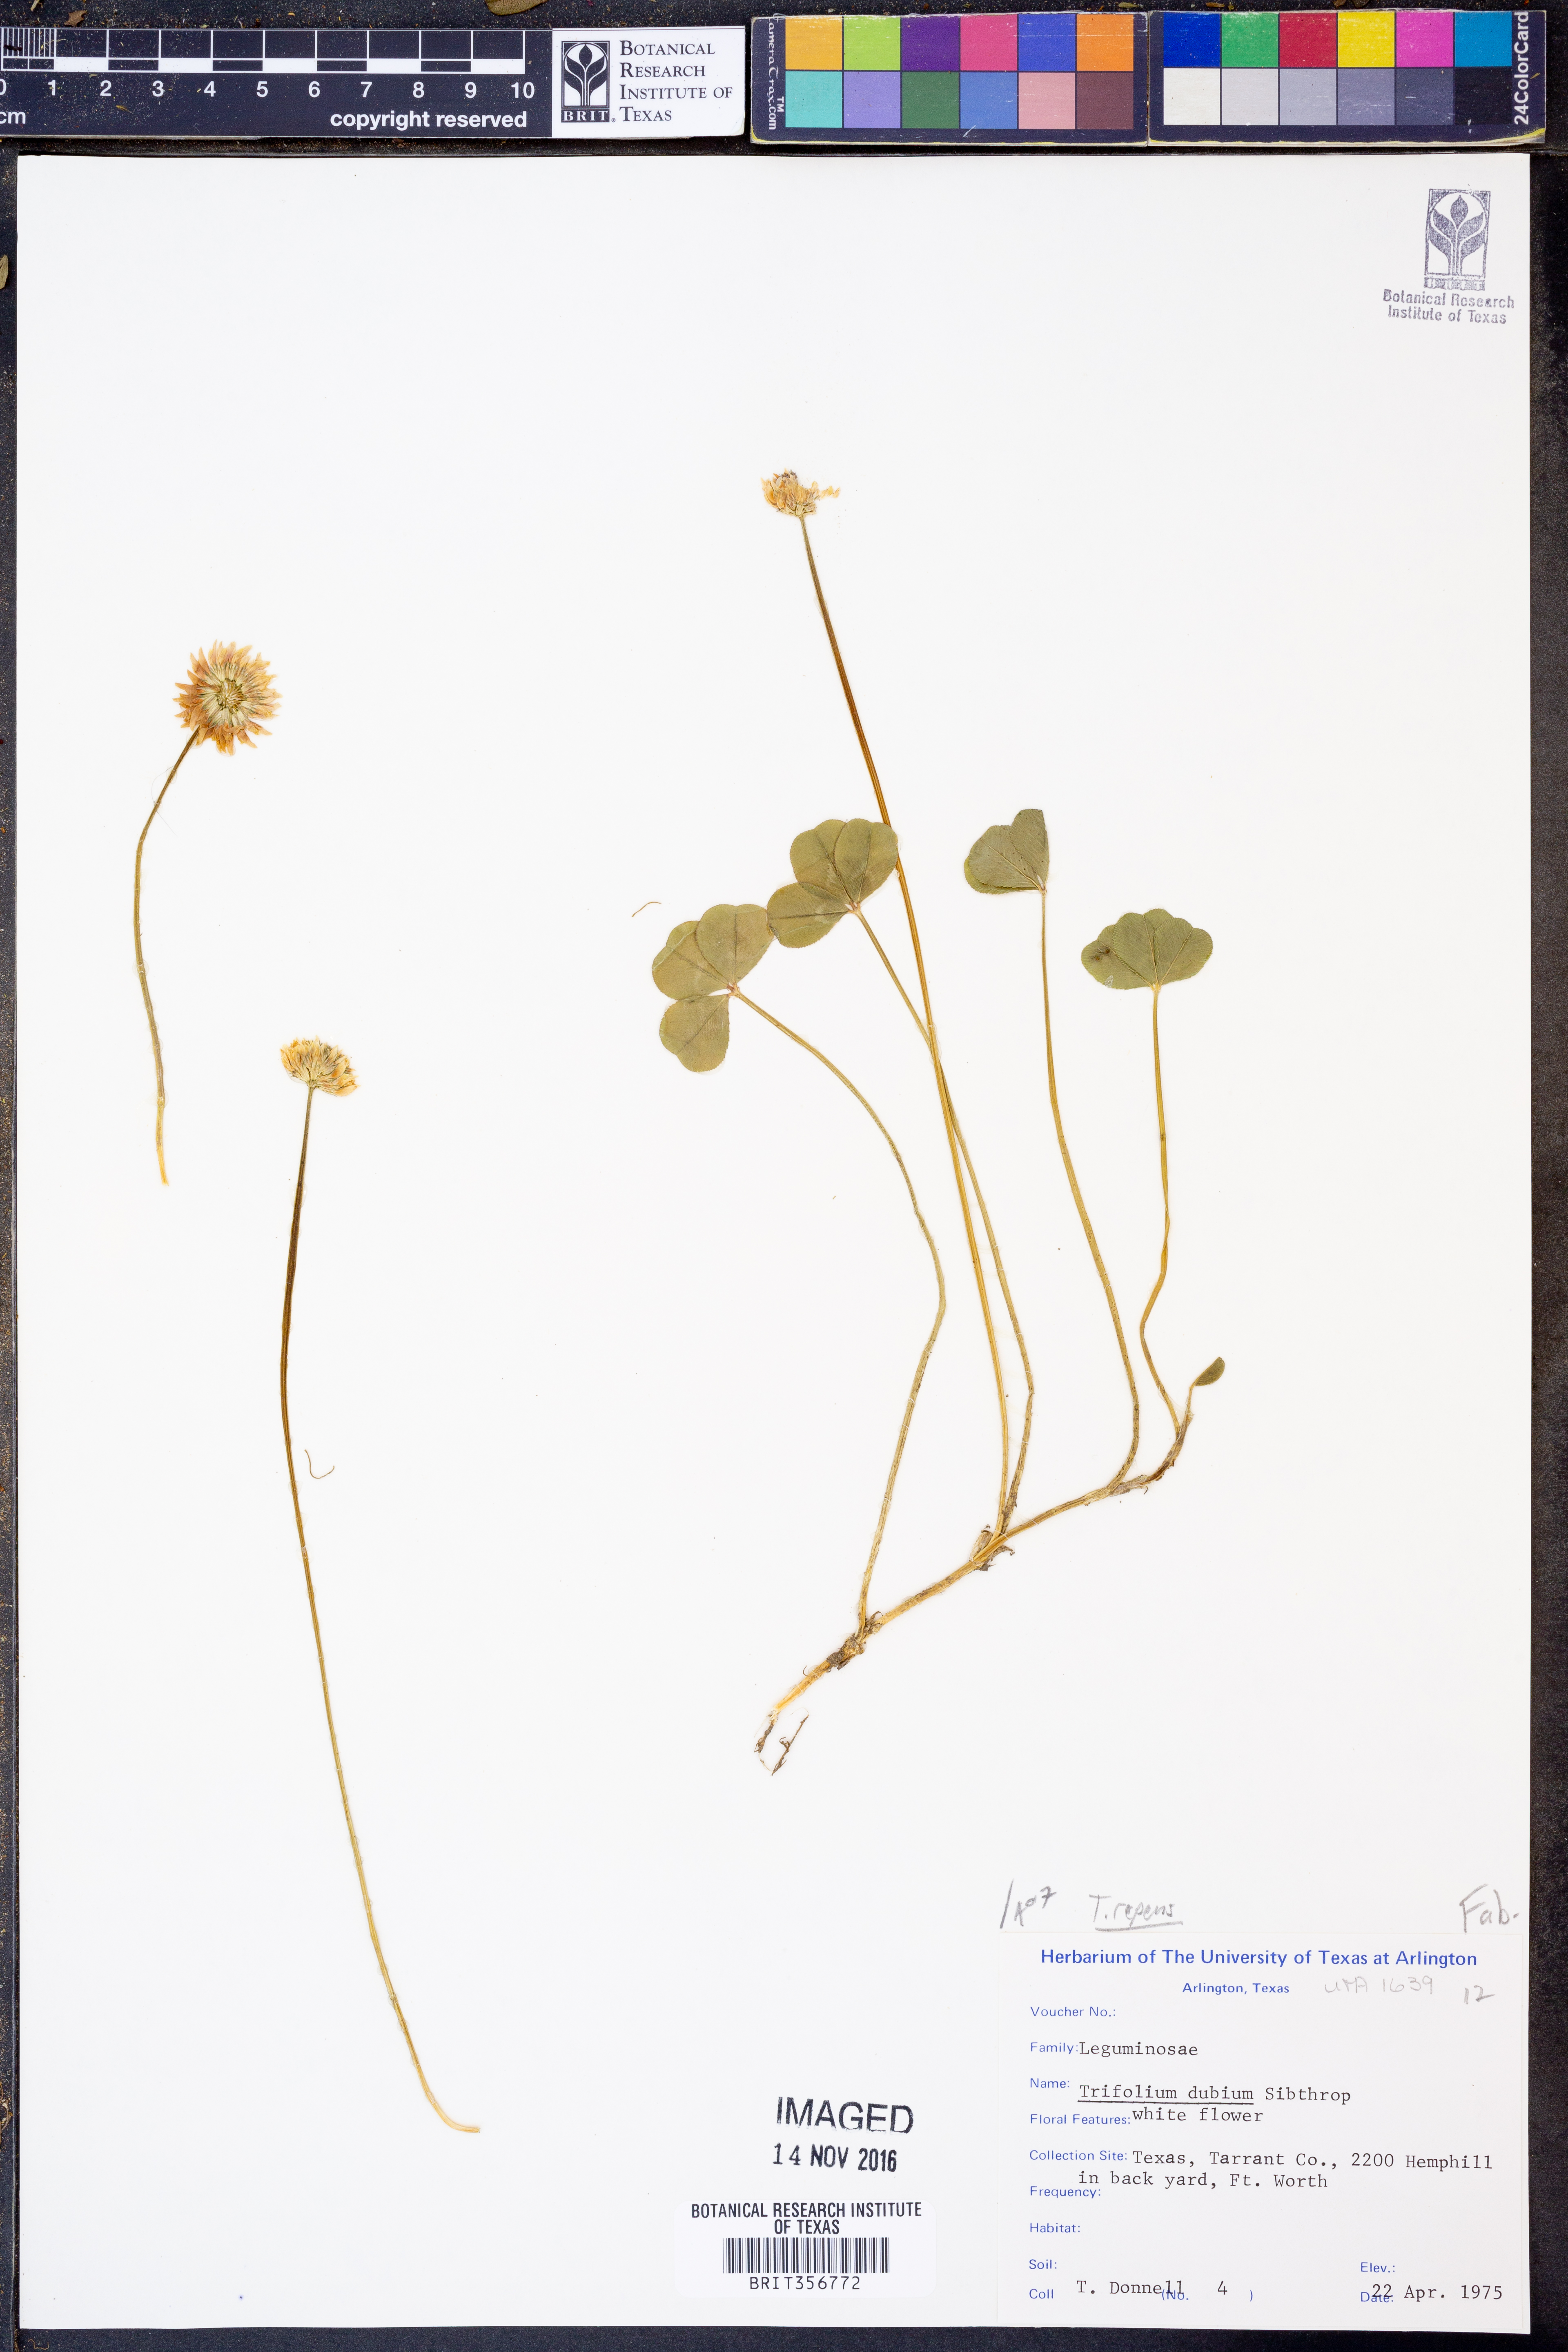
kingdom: Plantae
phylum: Tracheophyta
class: Magnoliopsida
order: Fabales
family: Fabaceae
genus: Trifolium
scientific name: Trifolium repens
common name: White clover
